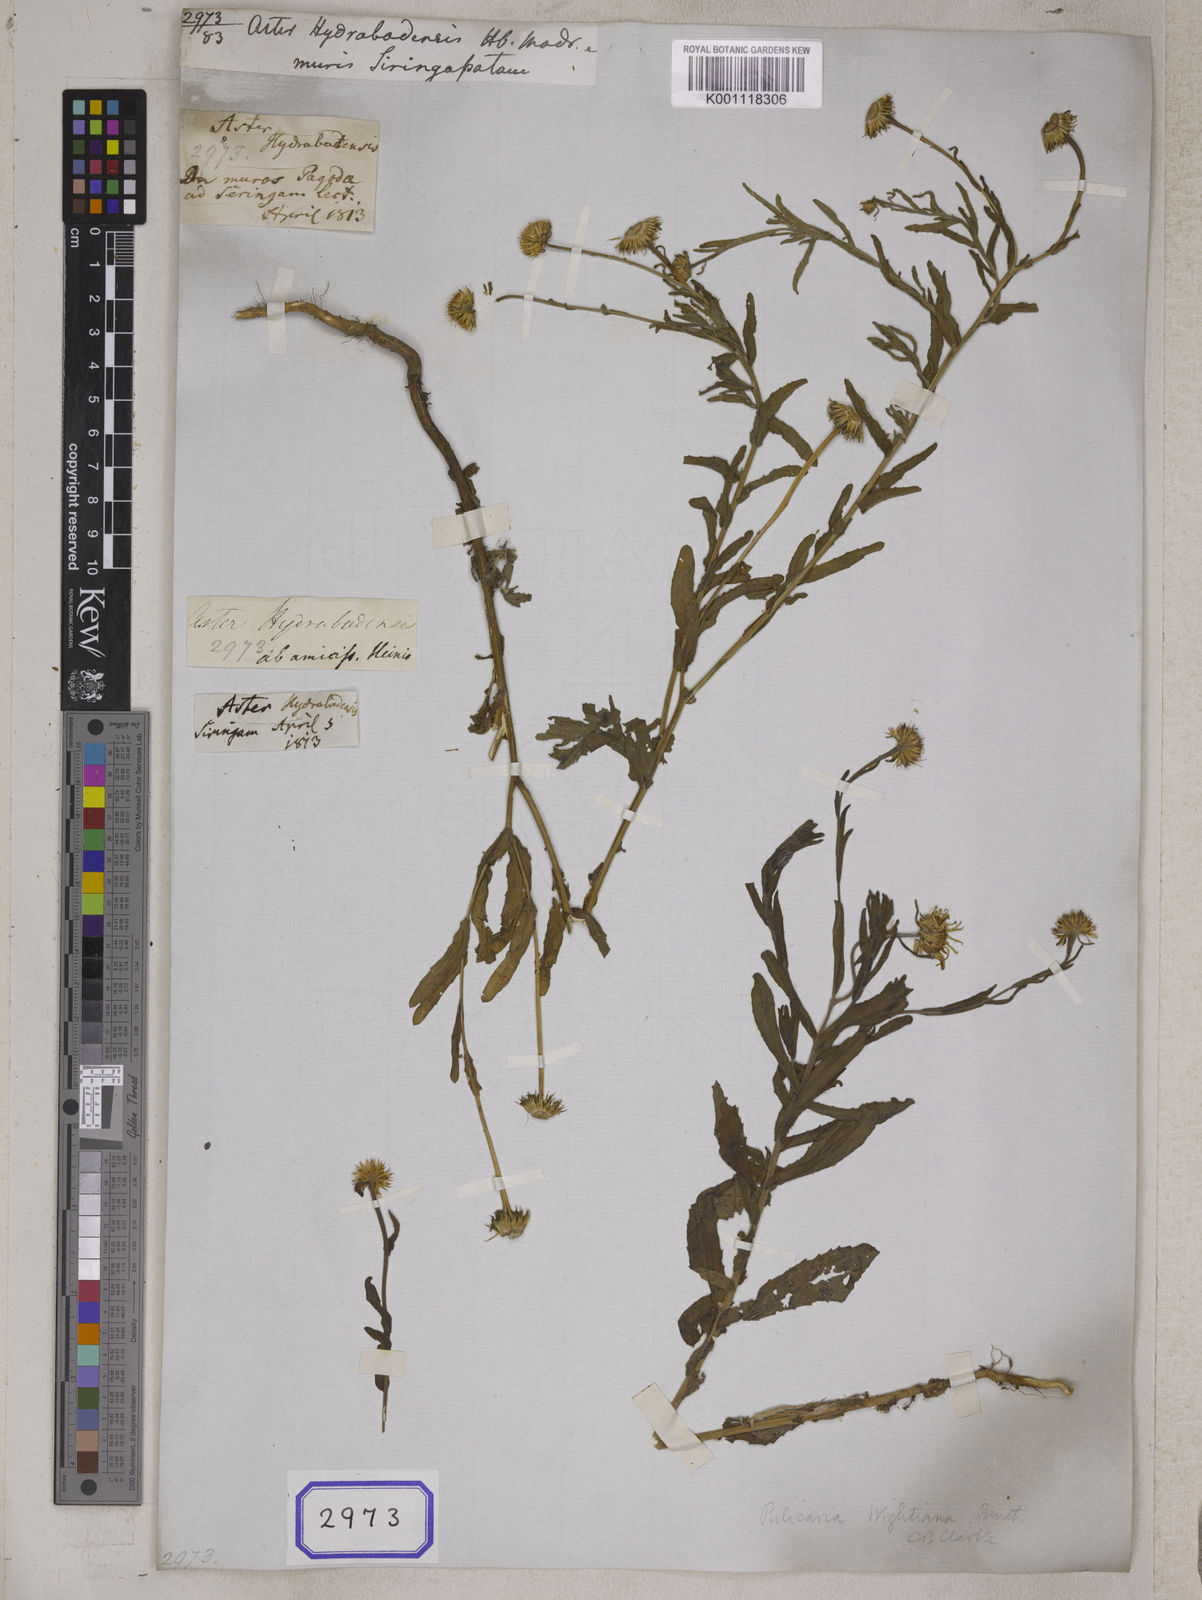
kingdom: Plantae
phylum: Tracheophyta
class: Magnoliopsida
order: Asterales
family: Asteraceae
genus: Pulicaria
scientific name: Pulicaria wightiana
